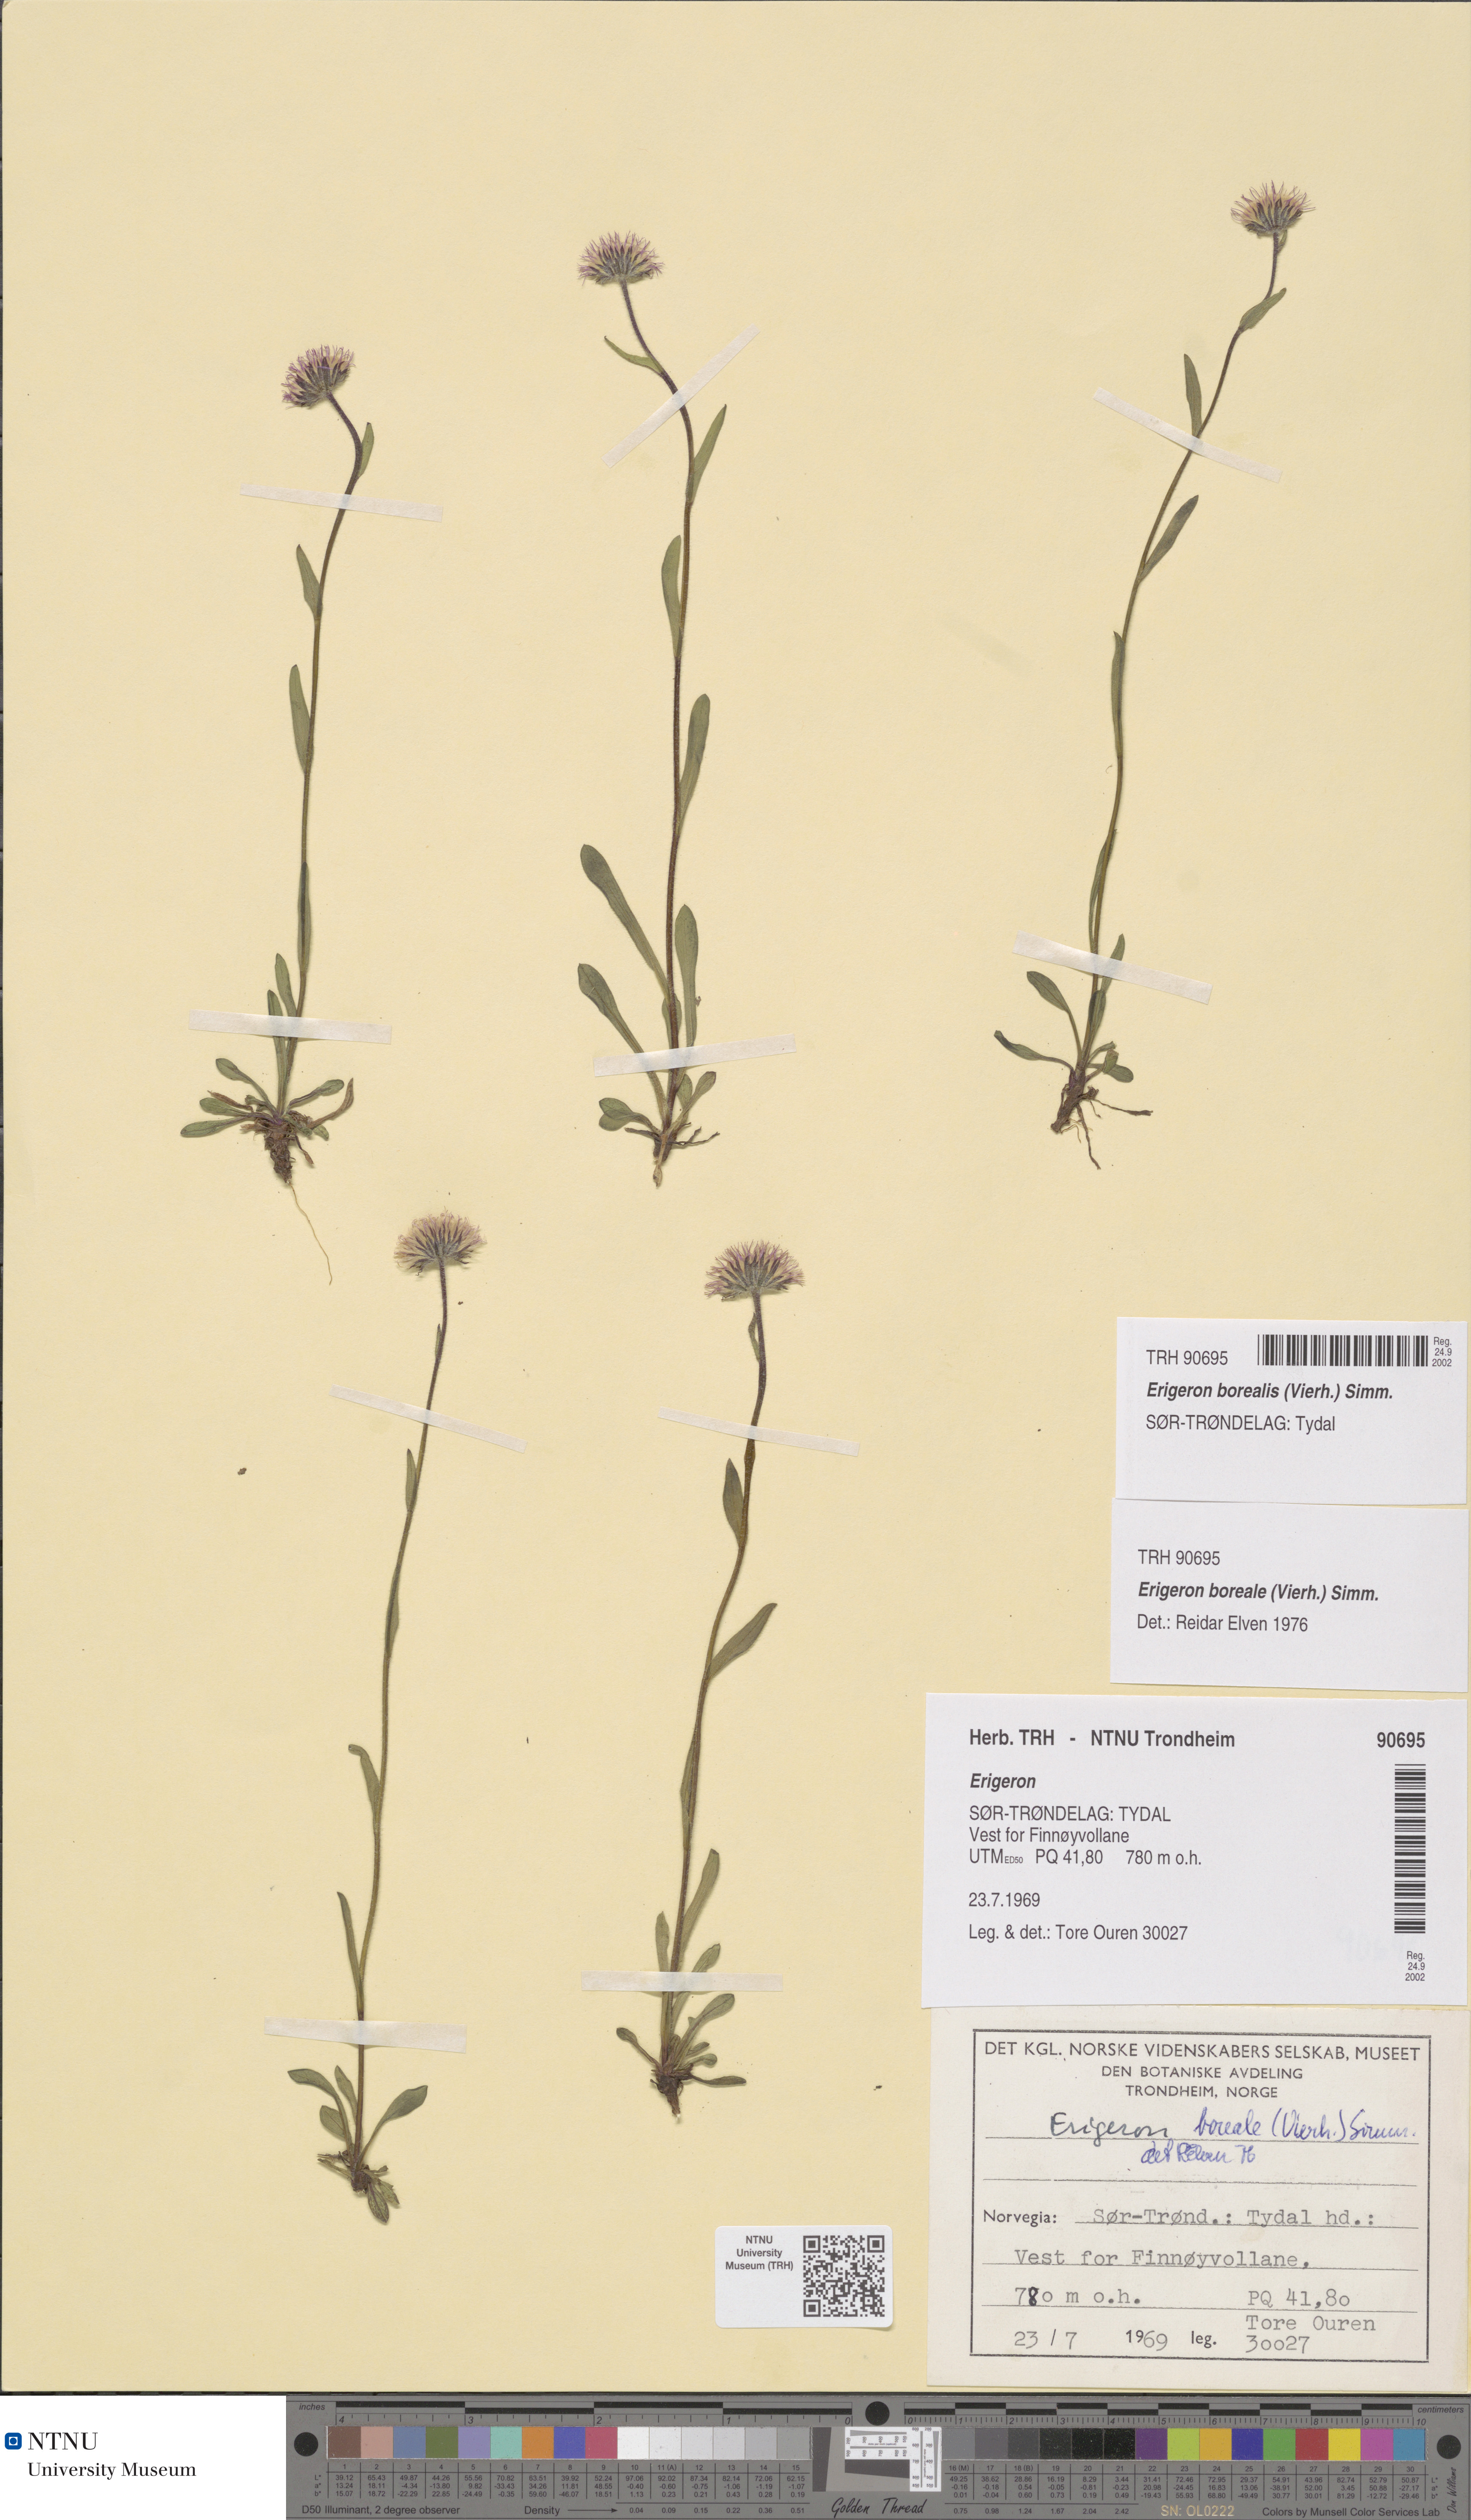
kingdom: Plantae
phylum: Tracheophyta
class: Magnoliopsida
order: Asterales
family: Asteraceae
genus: Erigeron
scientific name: Erigeron borealis
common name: Alpine fleabane
